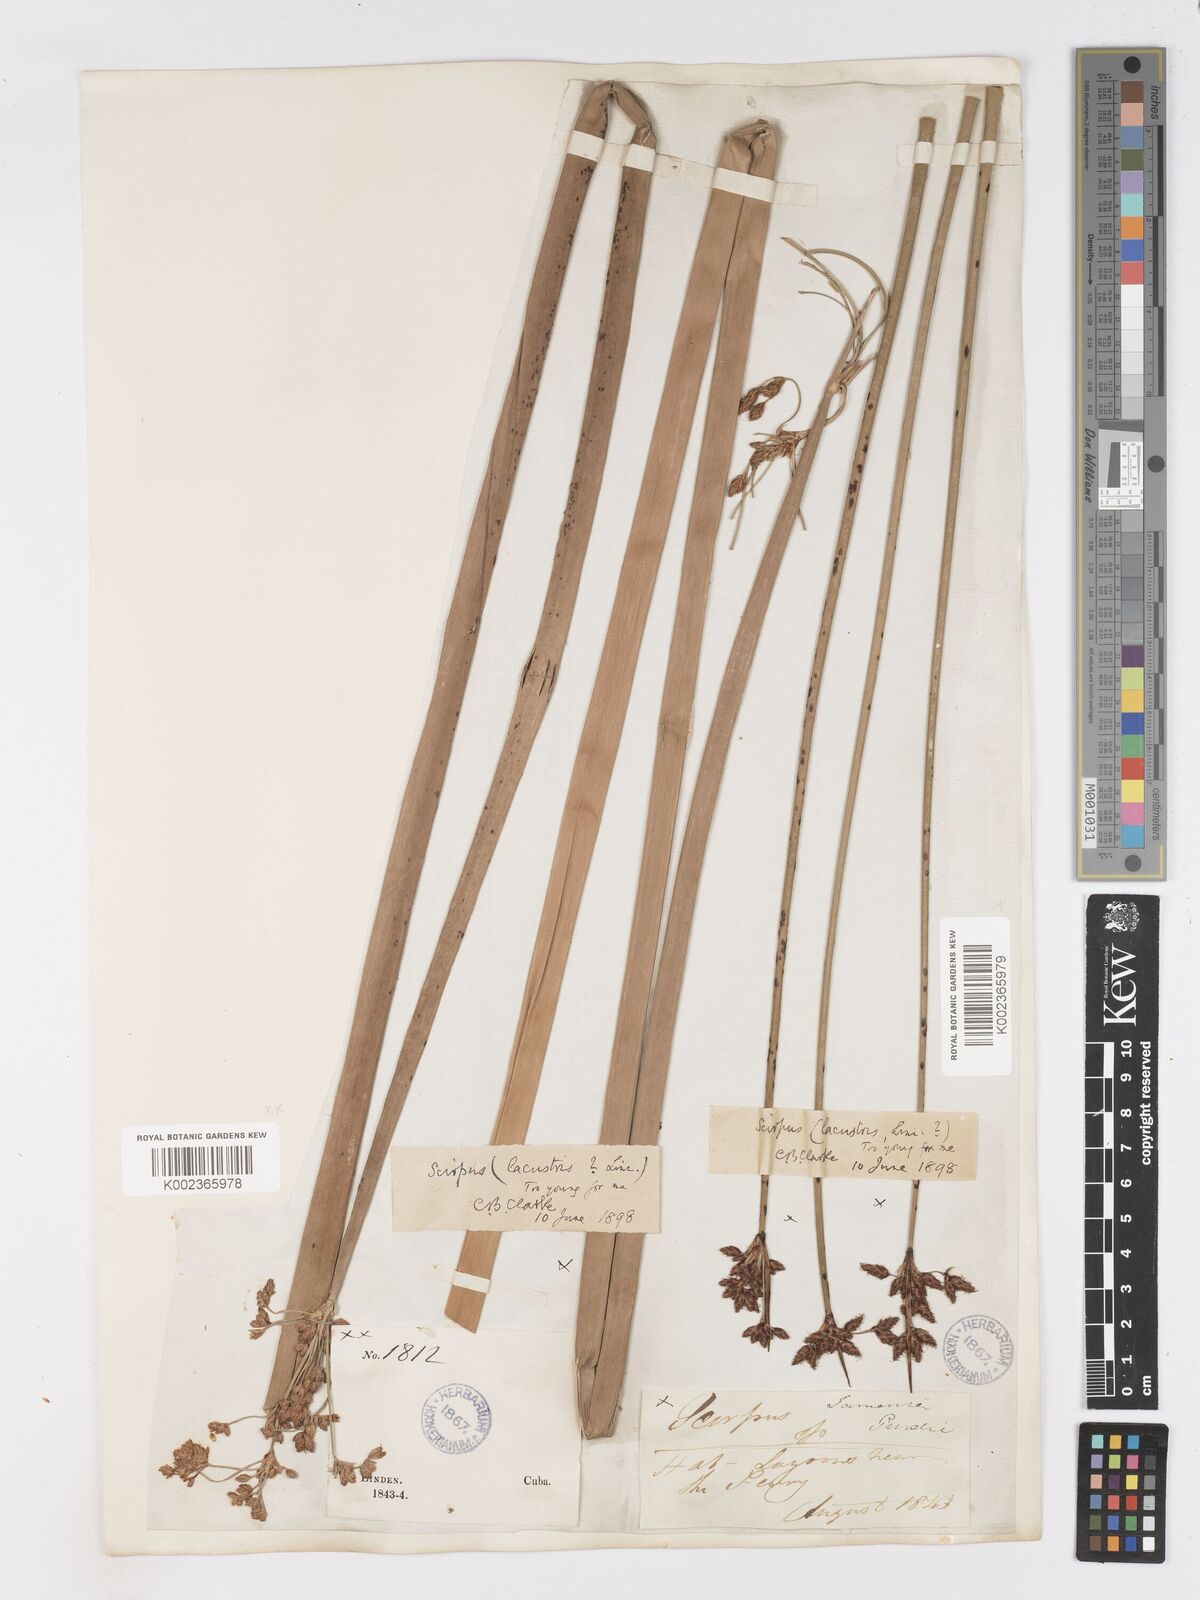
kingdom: Plantae
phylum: Tracheophyta
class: Liliopsida
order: Poales
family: Cyperaceae
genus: Schoenoplectus
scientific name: Schoenoplectus lacustris
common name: Common club-rush
